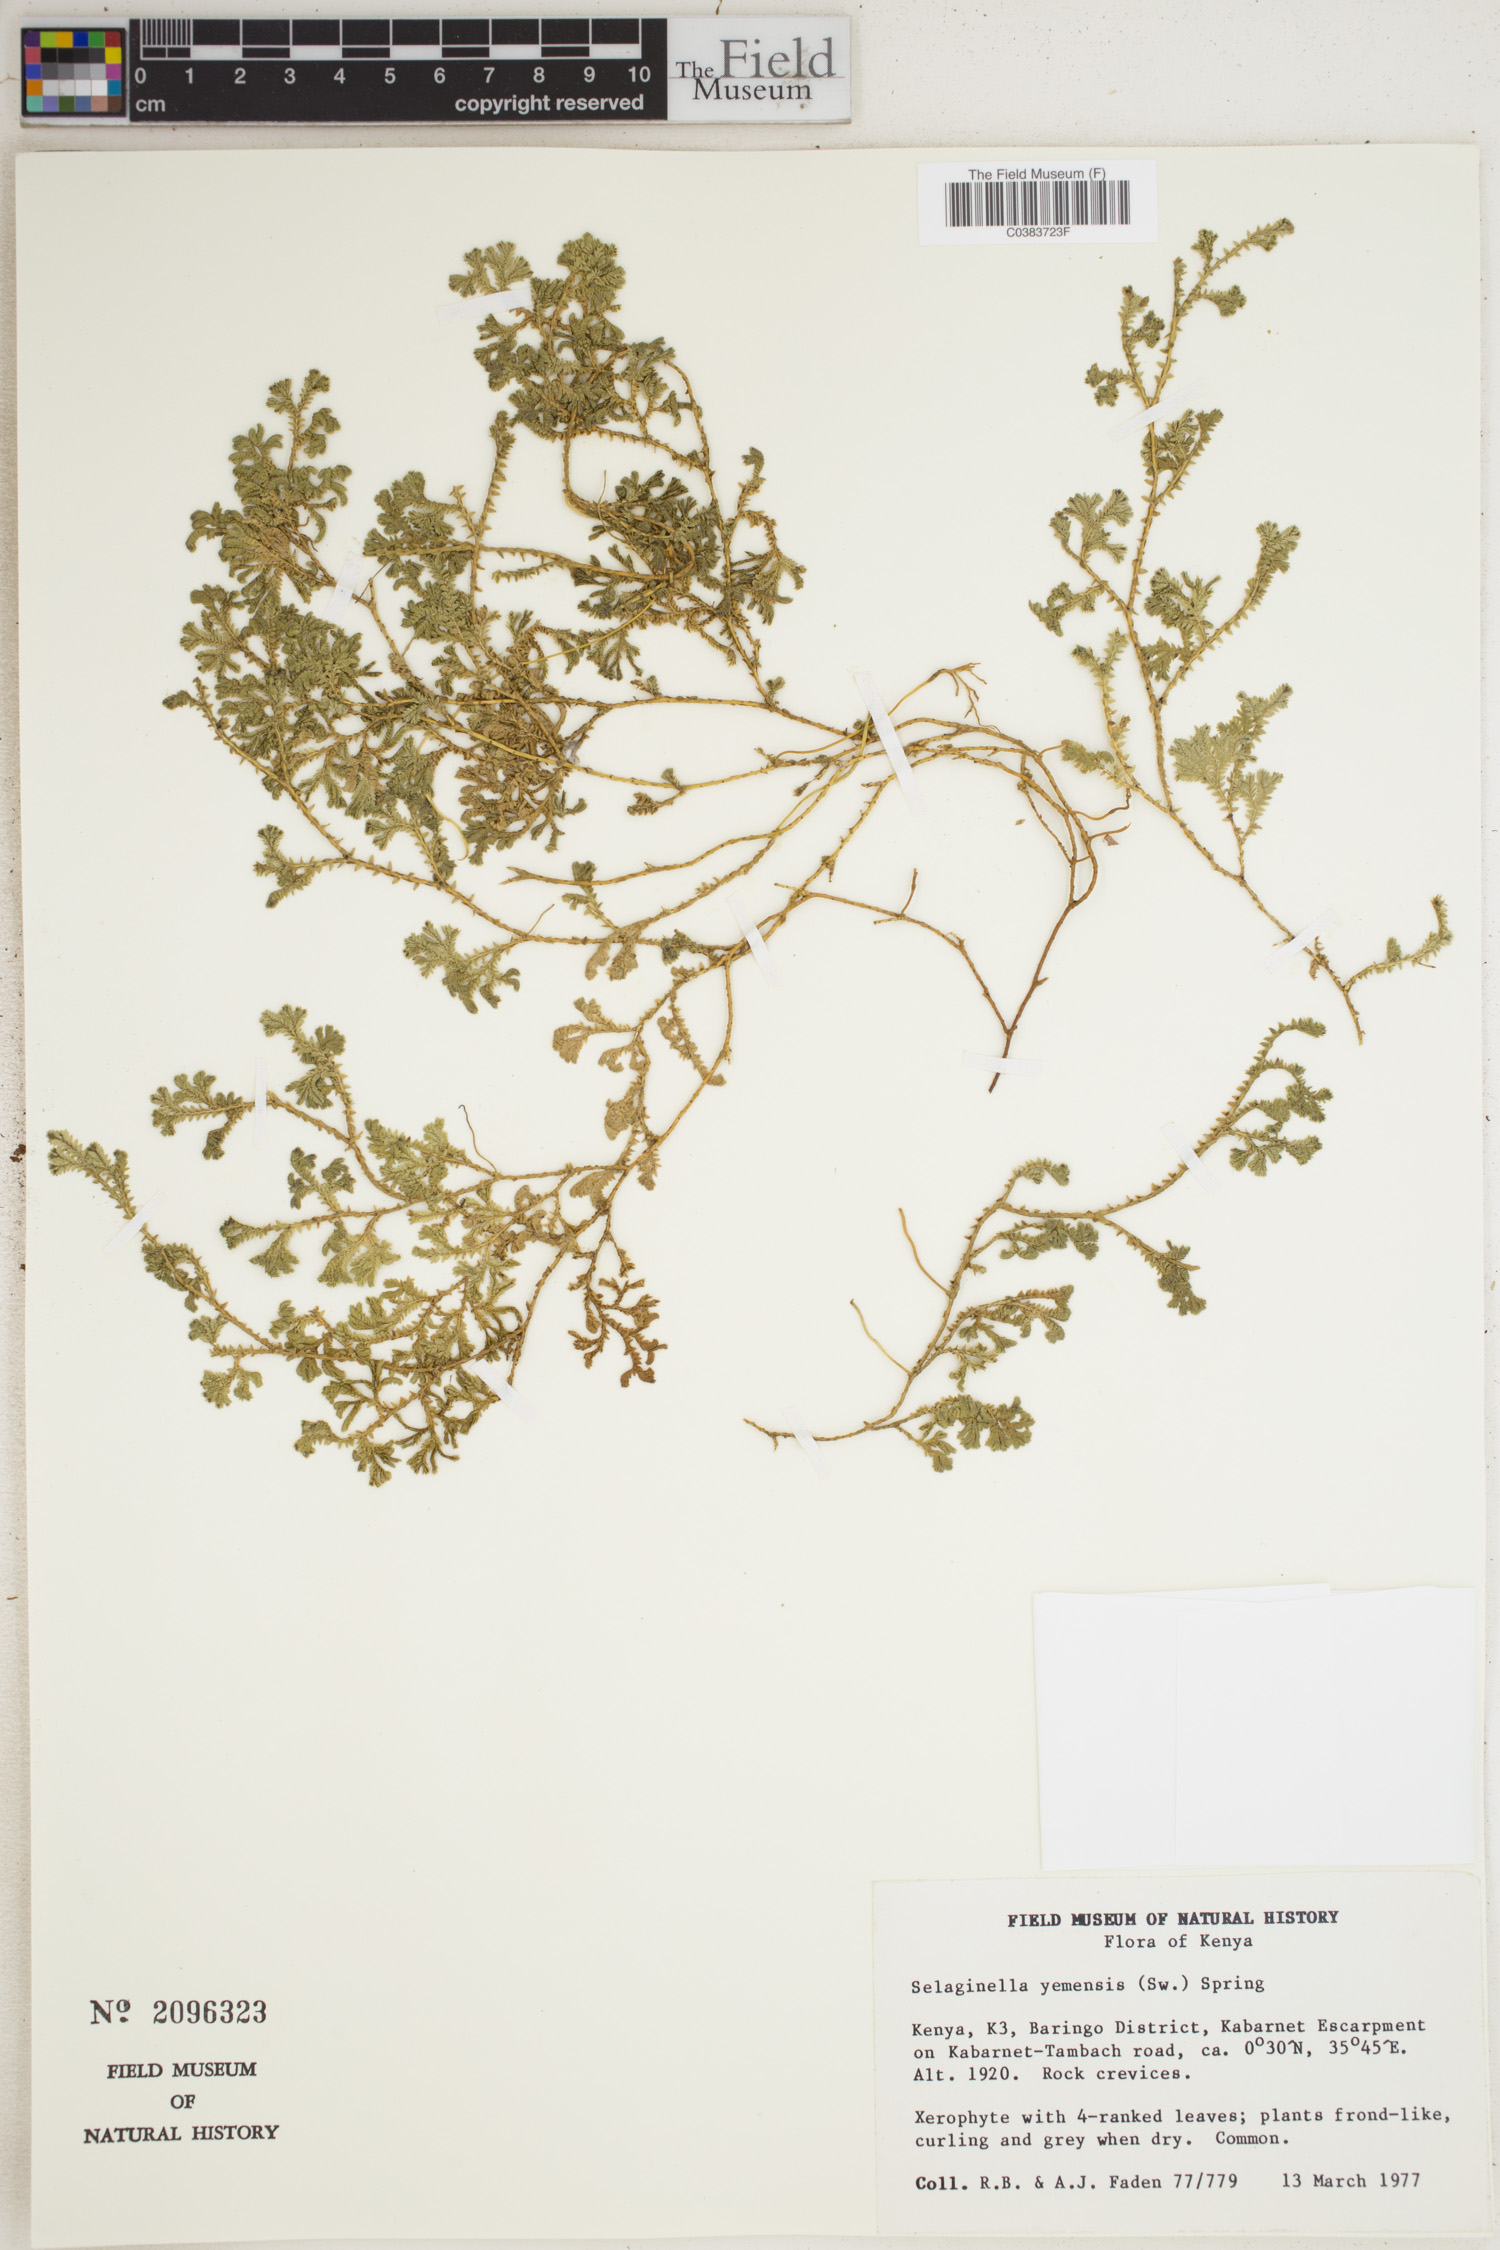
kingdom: Plantae
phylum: Tracheophyta
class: Lycopodiopsida
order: Selaginellales
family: Selaginellaceae
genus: Selaginella
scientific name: Selaginella yemensis
